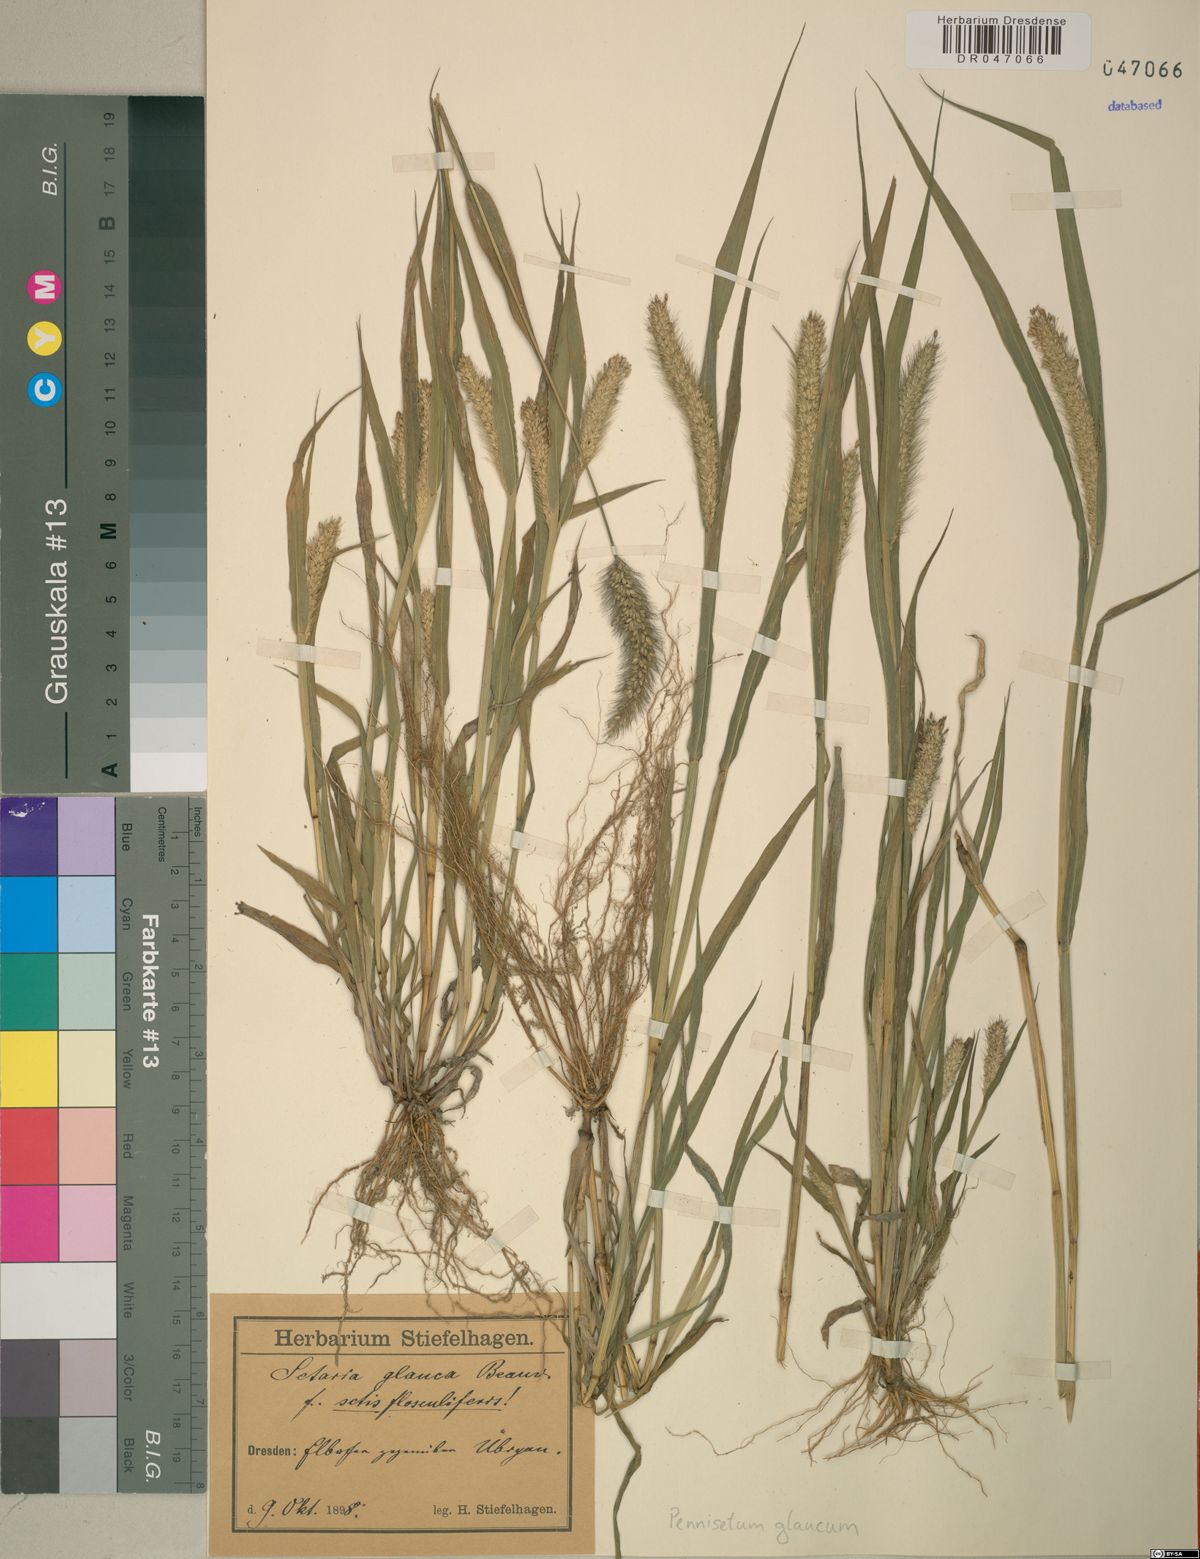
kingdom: Plantae
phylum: Tracheophyta
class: Liliopsida
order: Poales
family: Poaceae
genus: Cenchrus
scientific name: Cenchrus americanus
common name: Pearl millet
